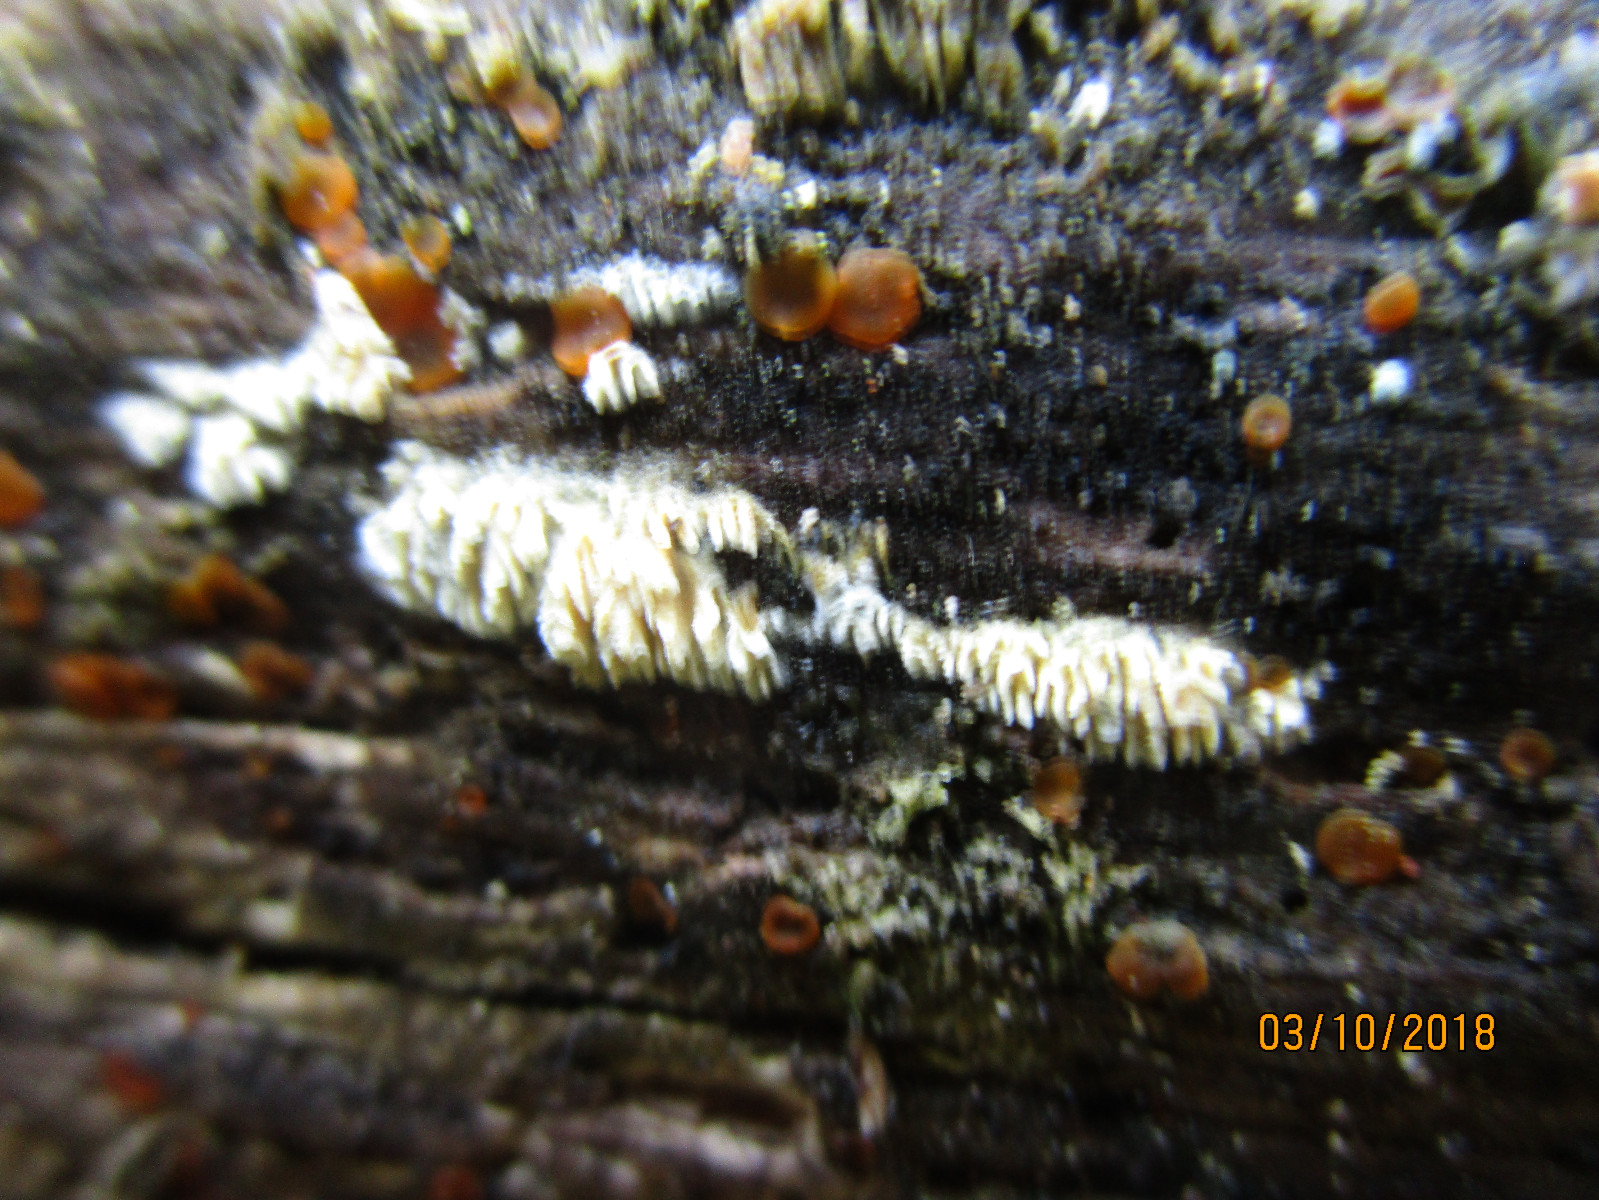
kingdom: Fungi
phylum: Ascomycota
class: Orbiliomycetes
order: Orbiliales
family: Orbiliaceae
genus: Orbilia
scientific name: Orbilia xanthostigma
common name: krumsporet voksskive
